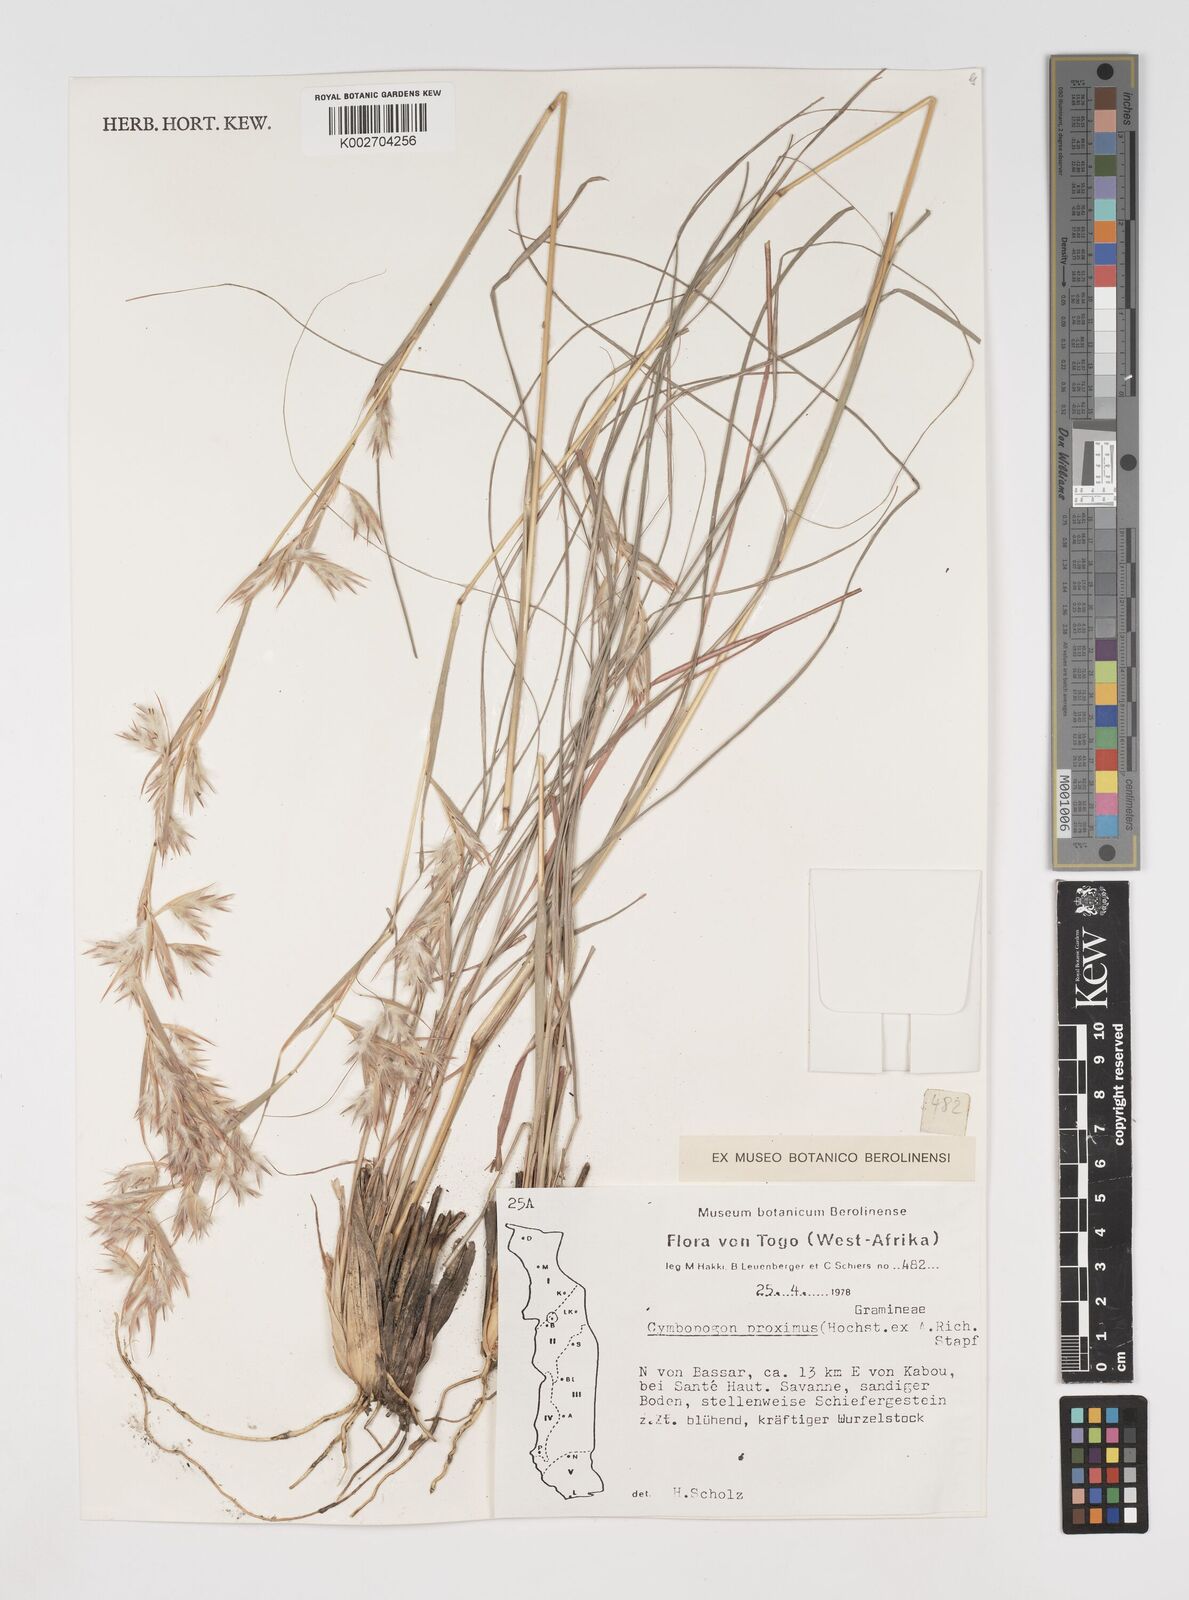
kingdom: Plantae
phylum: Tracheophyta
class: Liliopsida
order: Poales
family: Poaceae
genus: Cymbopogon
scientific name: Cymbopogon schoenanthus
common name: Geranium grass
